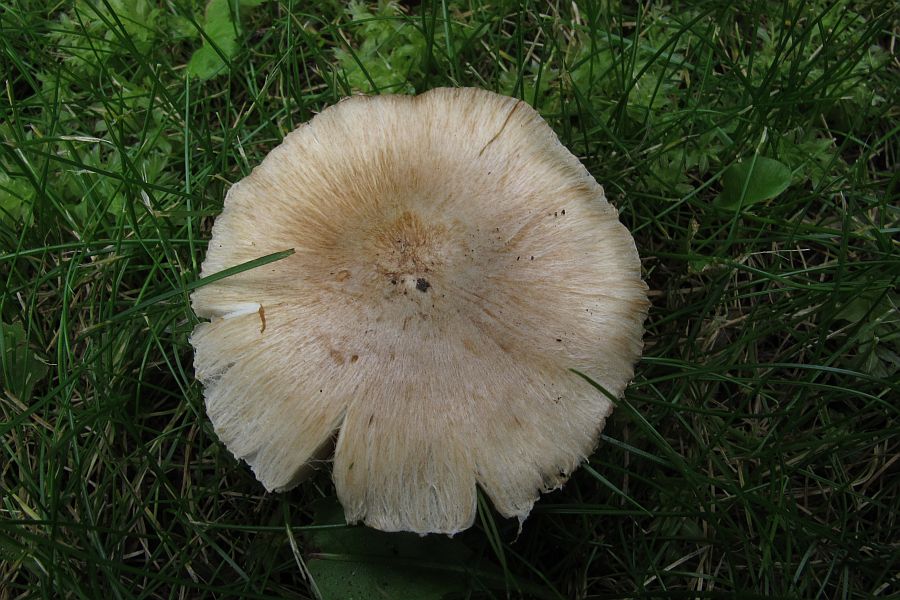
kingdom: Fungi
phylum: Basidiomycota
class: Agaricomycetes
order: Agaricales
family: Inocybaceae
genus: Pseudosperma
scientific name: Pseudosperma
